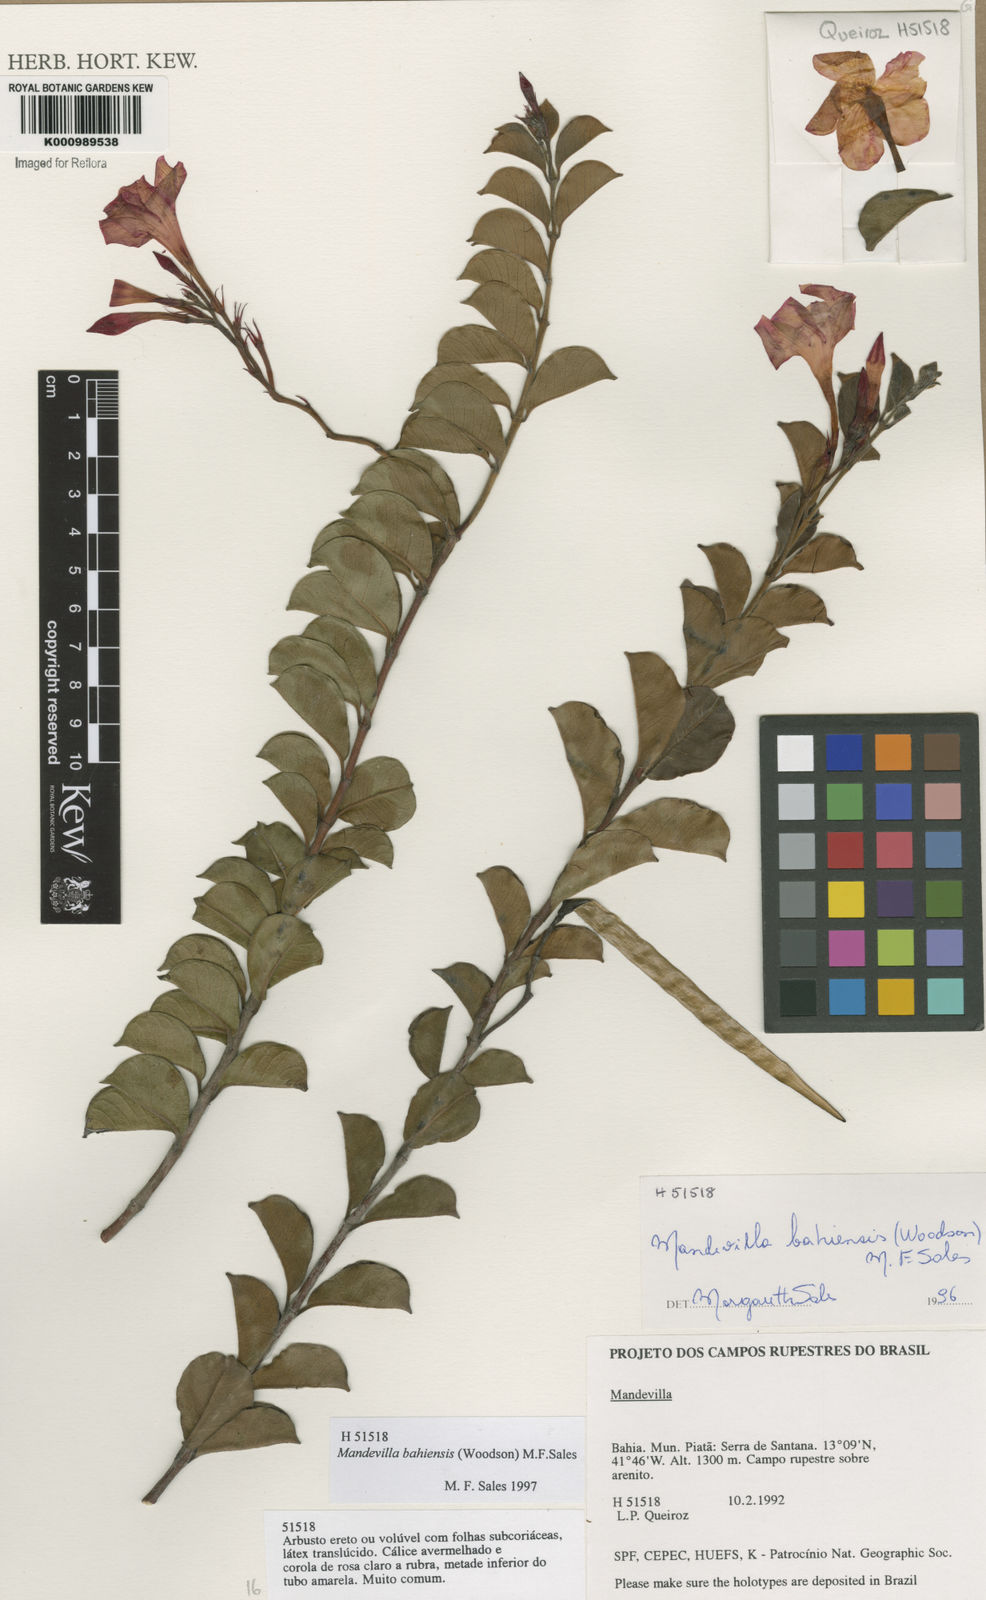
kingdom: Plantae
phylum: Tracheophyta
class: Magnoliopsida
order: Gentianales
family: Apocynaceae
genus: Mandevilla
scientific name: Mandevilla bahiensis
